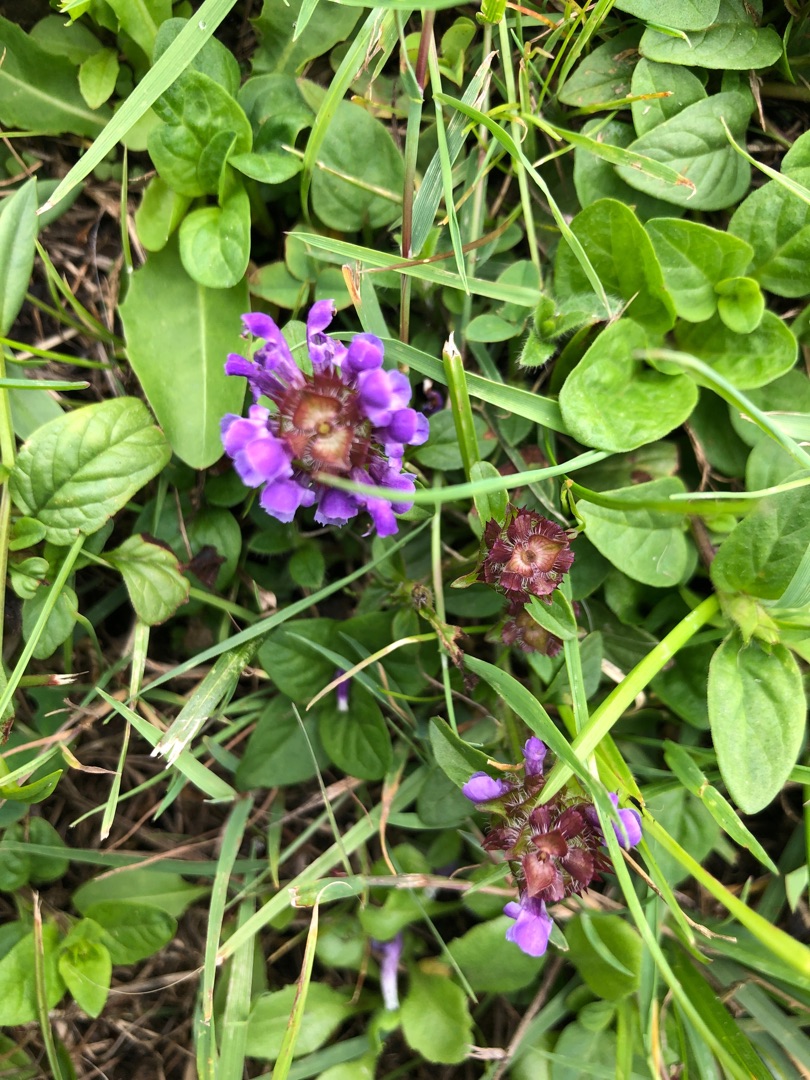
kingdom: Plantae
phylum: Tracheophyta
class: Magnoliopsida
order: Lamiales
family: Lamiaceae
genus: Prunella
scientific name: Prunella vulgaris
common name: Almindelig brunelle
